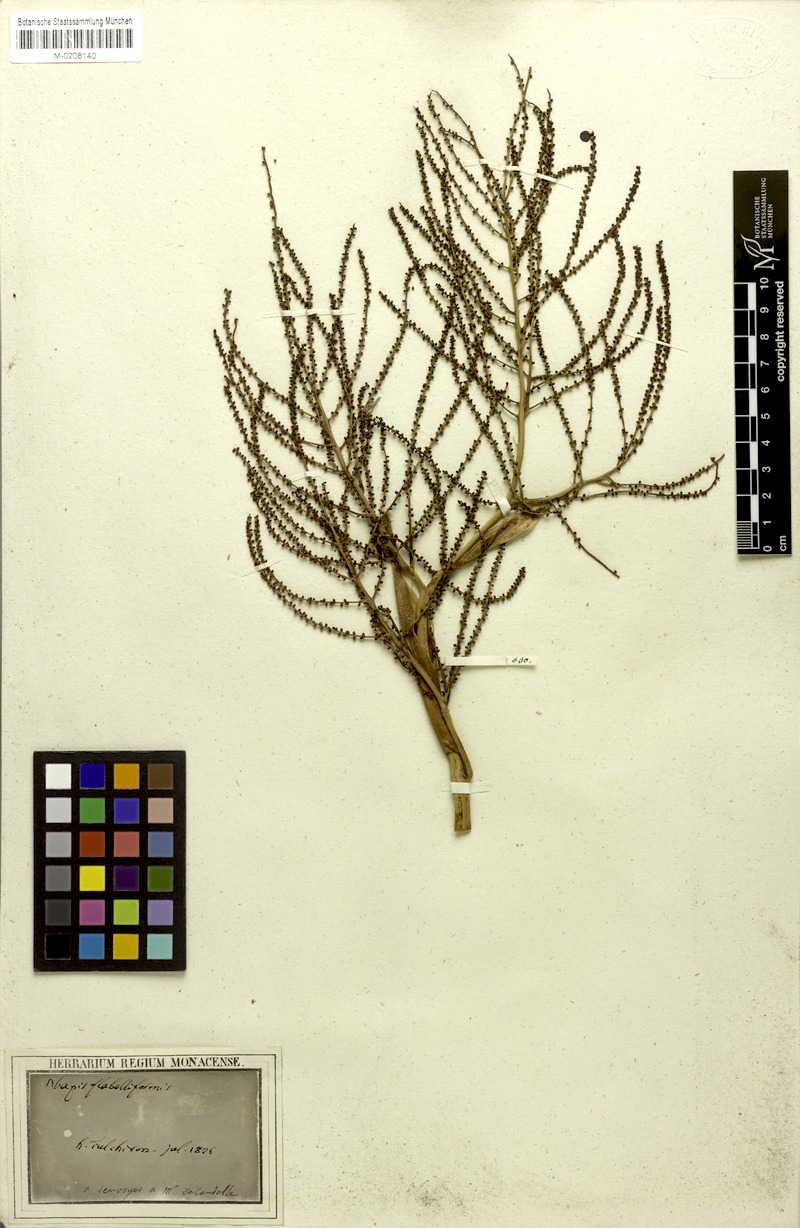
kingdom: Plantae
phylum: Tracheophyta
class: Liliopsida
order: Arecales
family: Arecaceae
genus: Rhapis
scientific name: Rhapis excelsa
